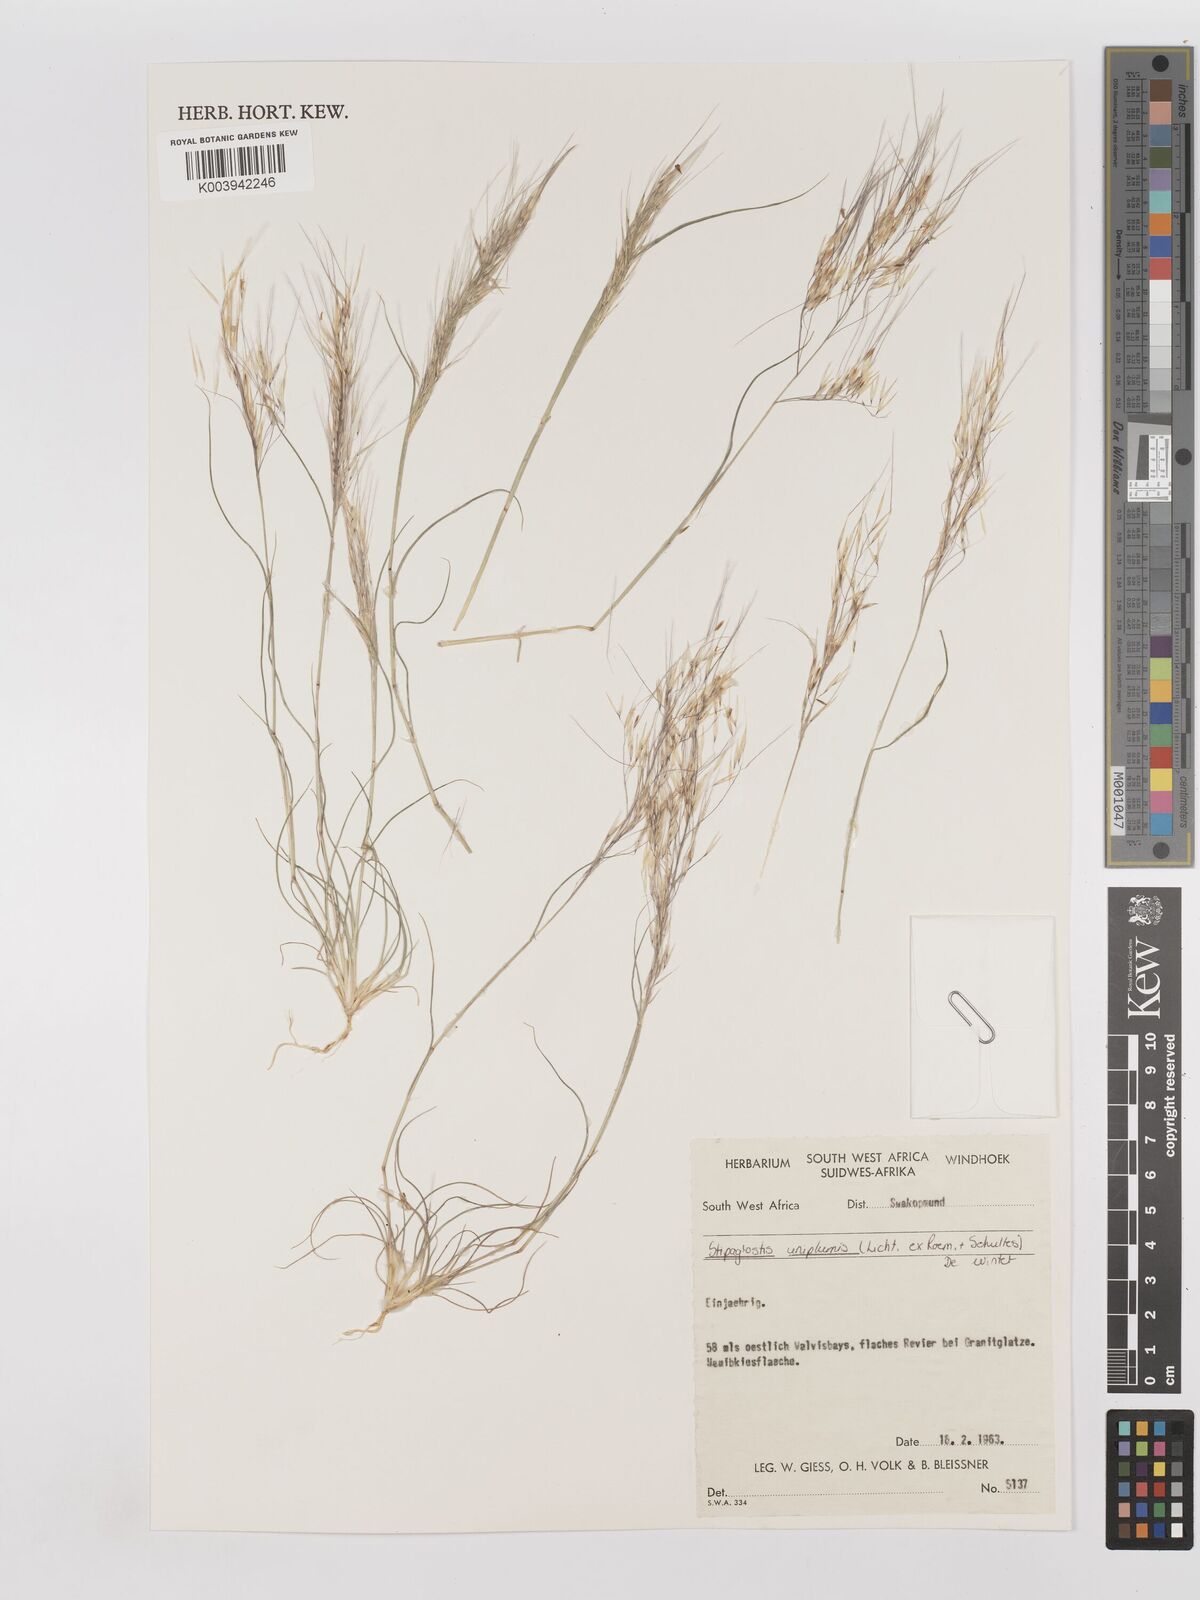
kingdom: Plantae
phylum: Tracheophyta
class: Liliopsida
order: Poales
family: Poaceae
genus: Stipagrostis
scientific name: Stipagrostis uniplumis
